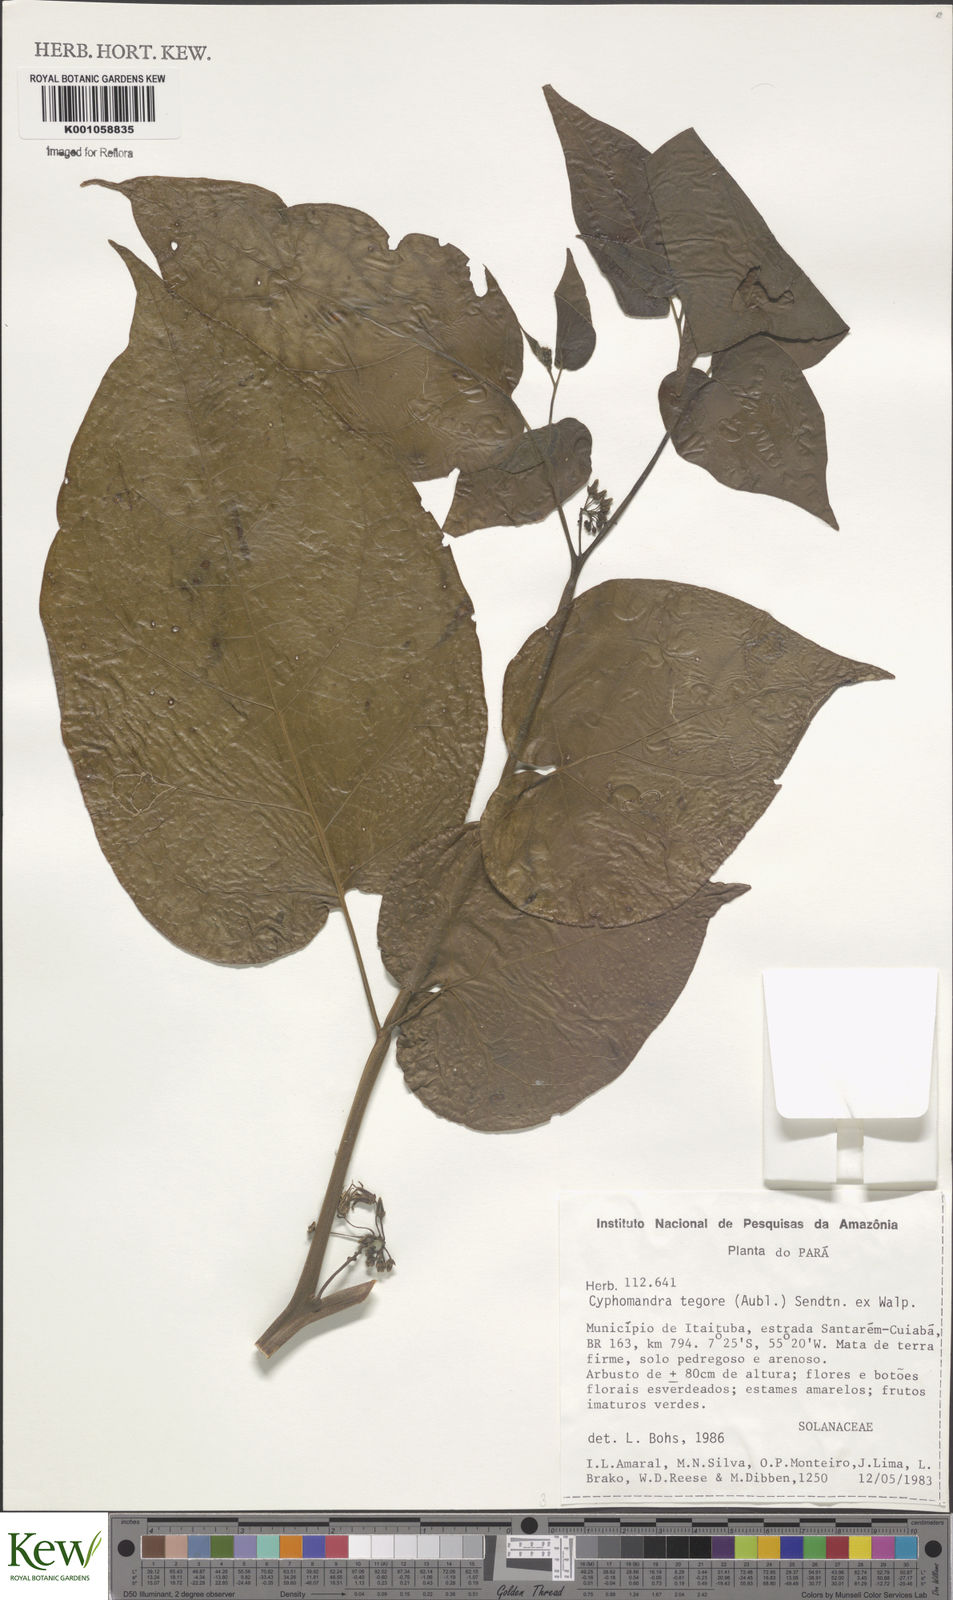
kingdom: Plantae
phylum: Tracheophyta
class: Magnoliopsida
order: Solanales
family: Solanaceae
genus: Solanum
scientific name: Solanum tegore
